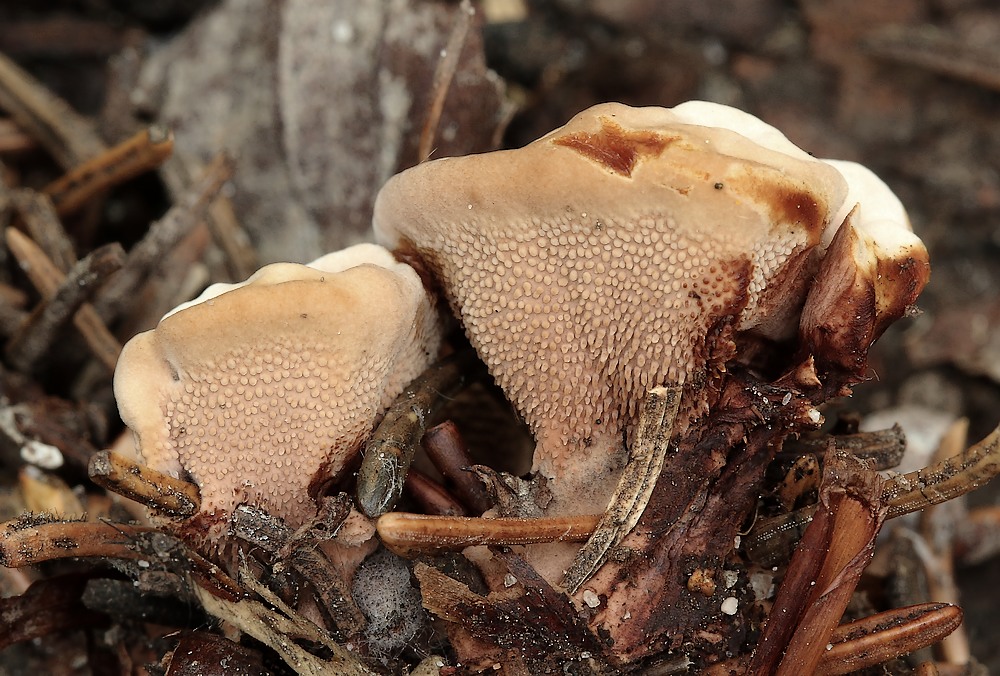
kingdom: Fungi
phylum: Basidiomycota
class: Agaricomycetes
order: Thelephorales
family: Bankeraceae
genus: Hydnellum
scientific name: Hydnellum concrescens
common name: bæltet korkpigsvamp
